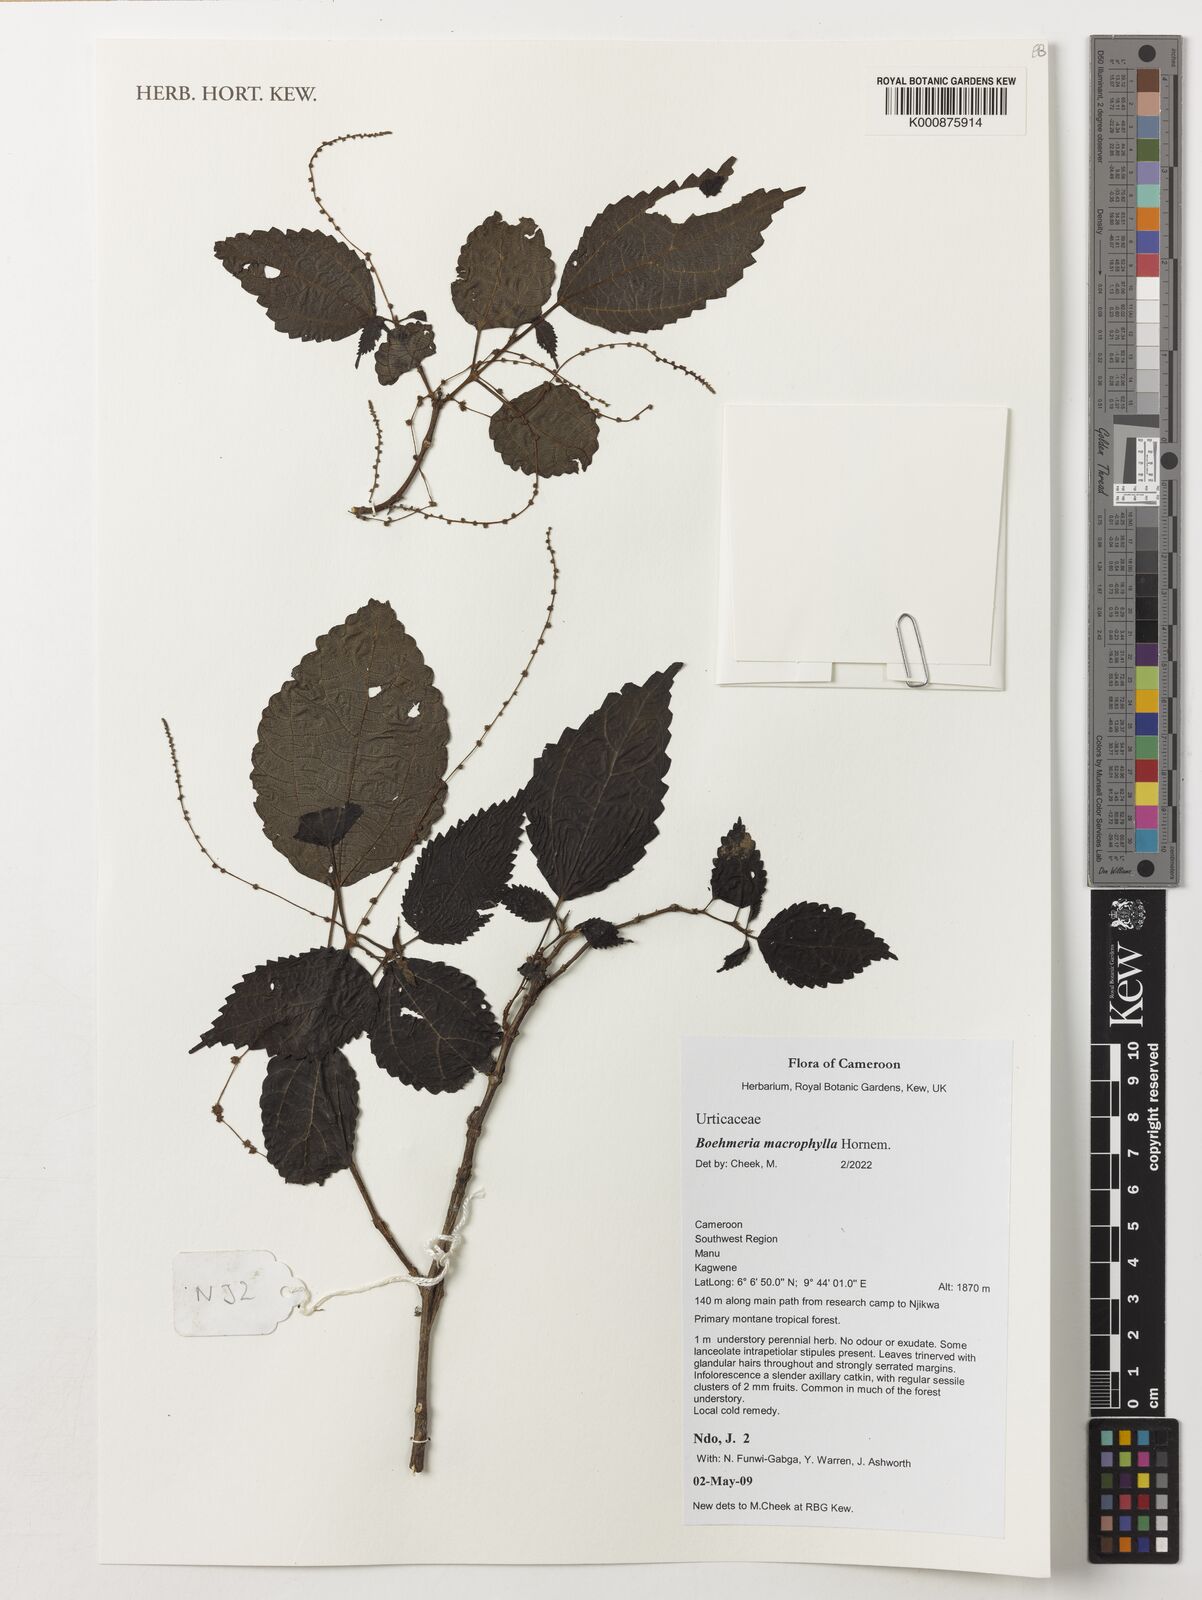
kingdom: Plantae
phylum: Tracheophyta
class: Magnoliopsida
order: Rosales
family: Urticaceae
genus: Boehmeria
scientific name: Boehmeria virgata
